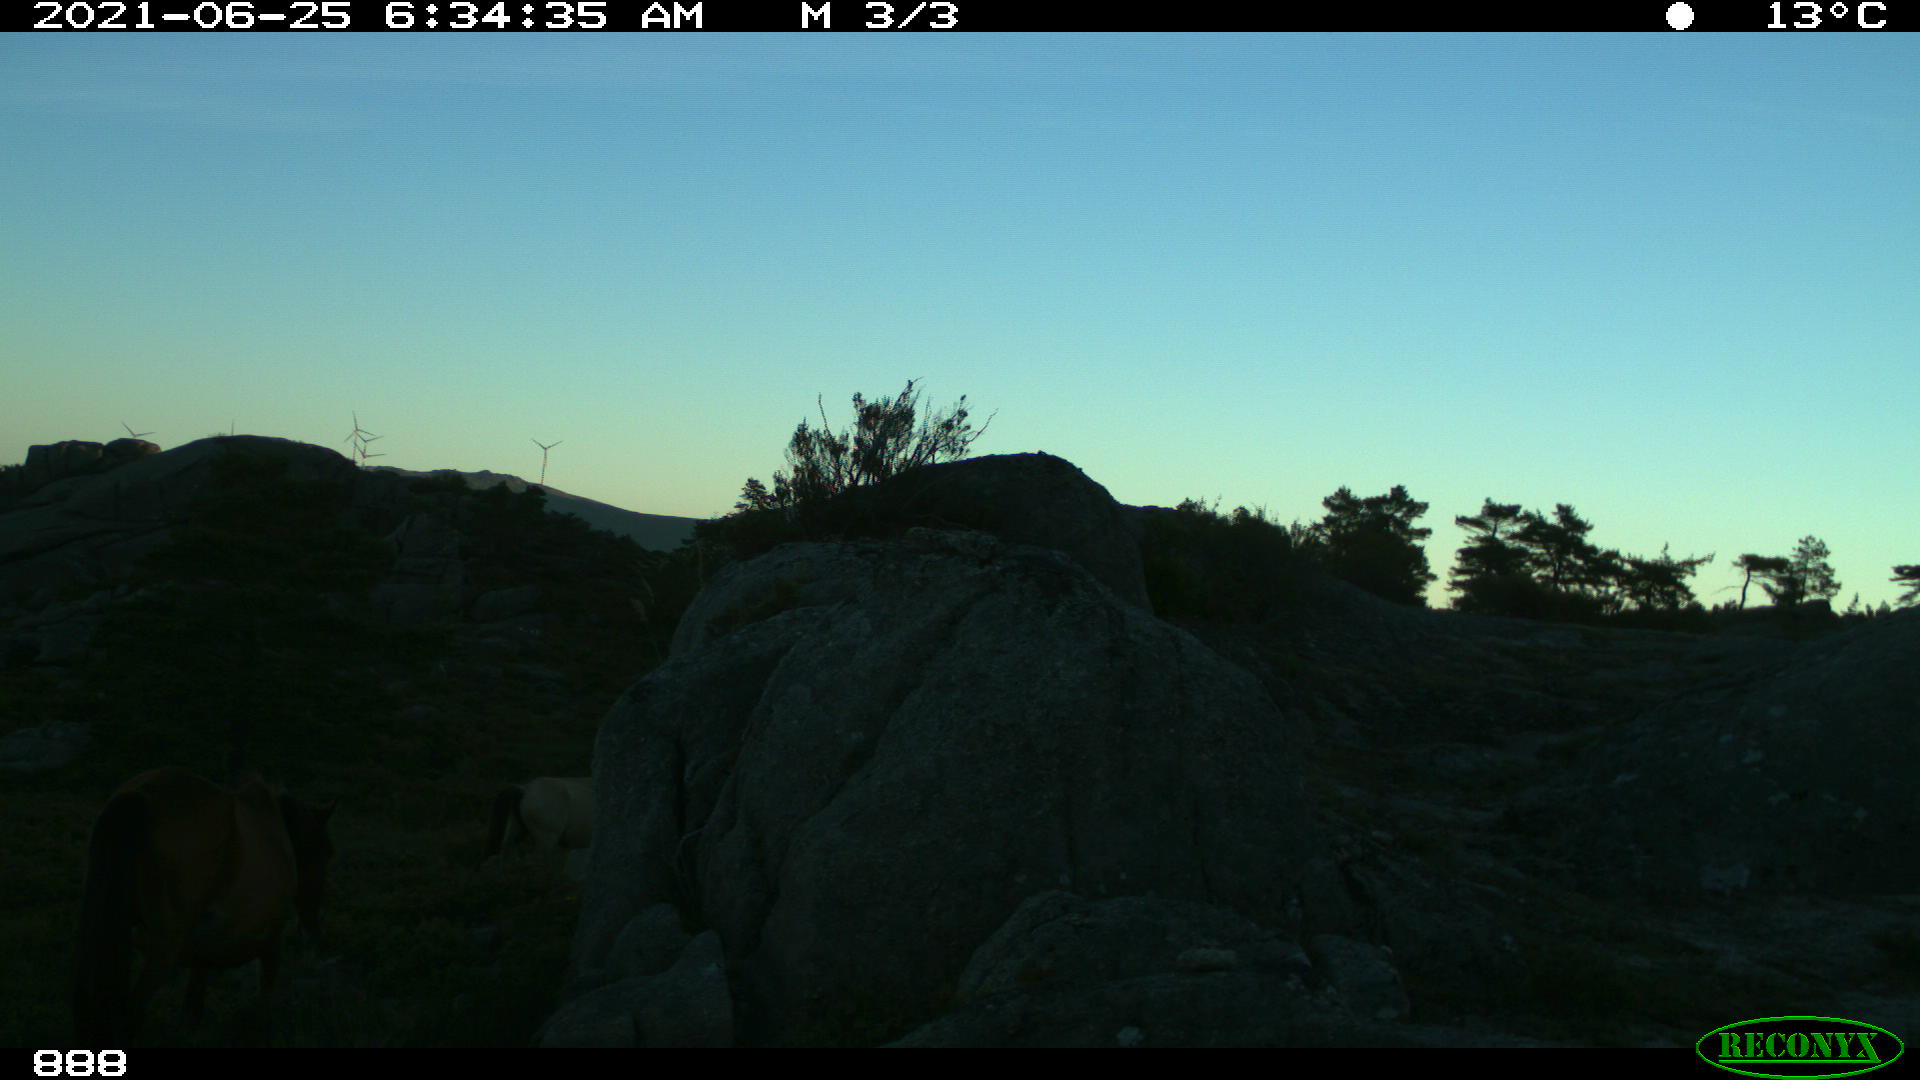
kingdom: Animalia
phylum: Chordata
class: Mammalia
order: Perissodactyla
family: Equidae
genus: Equus
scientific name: Equus caballus
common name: Horse
